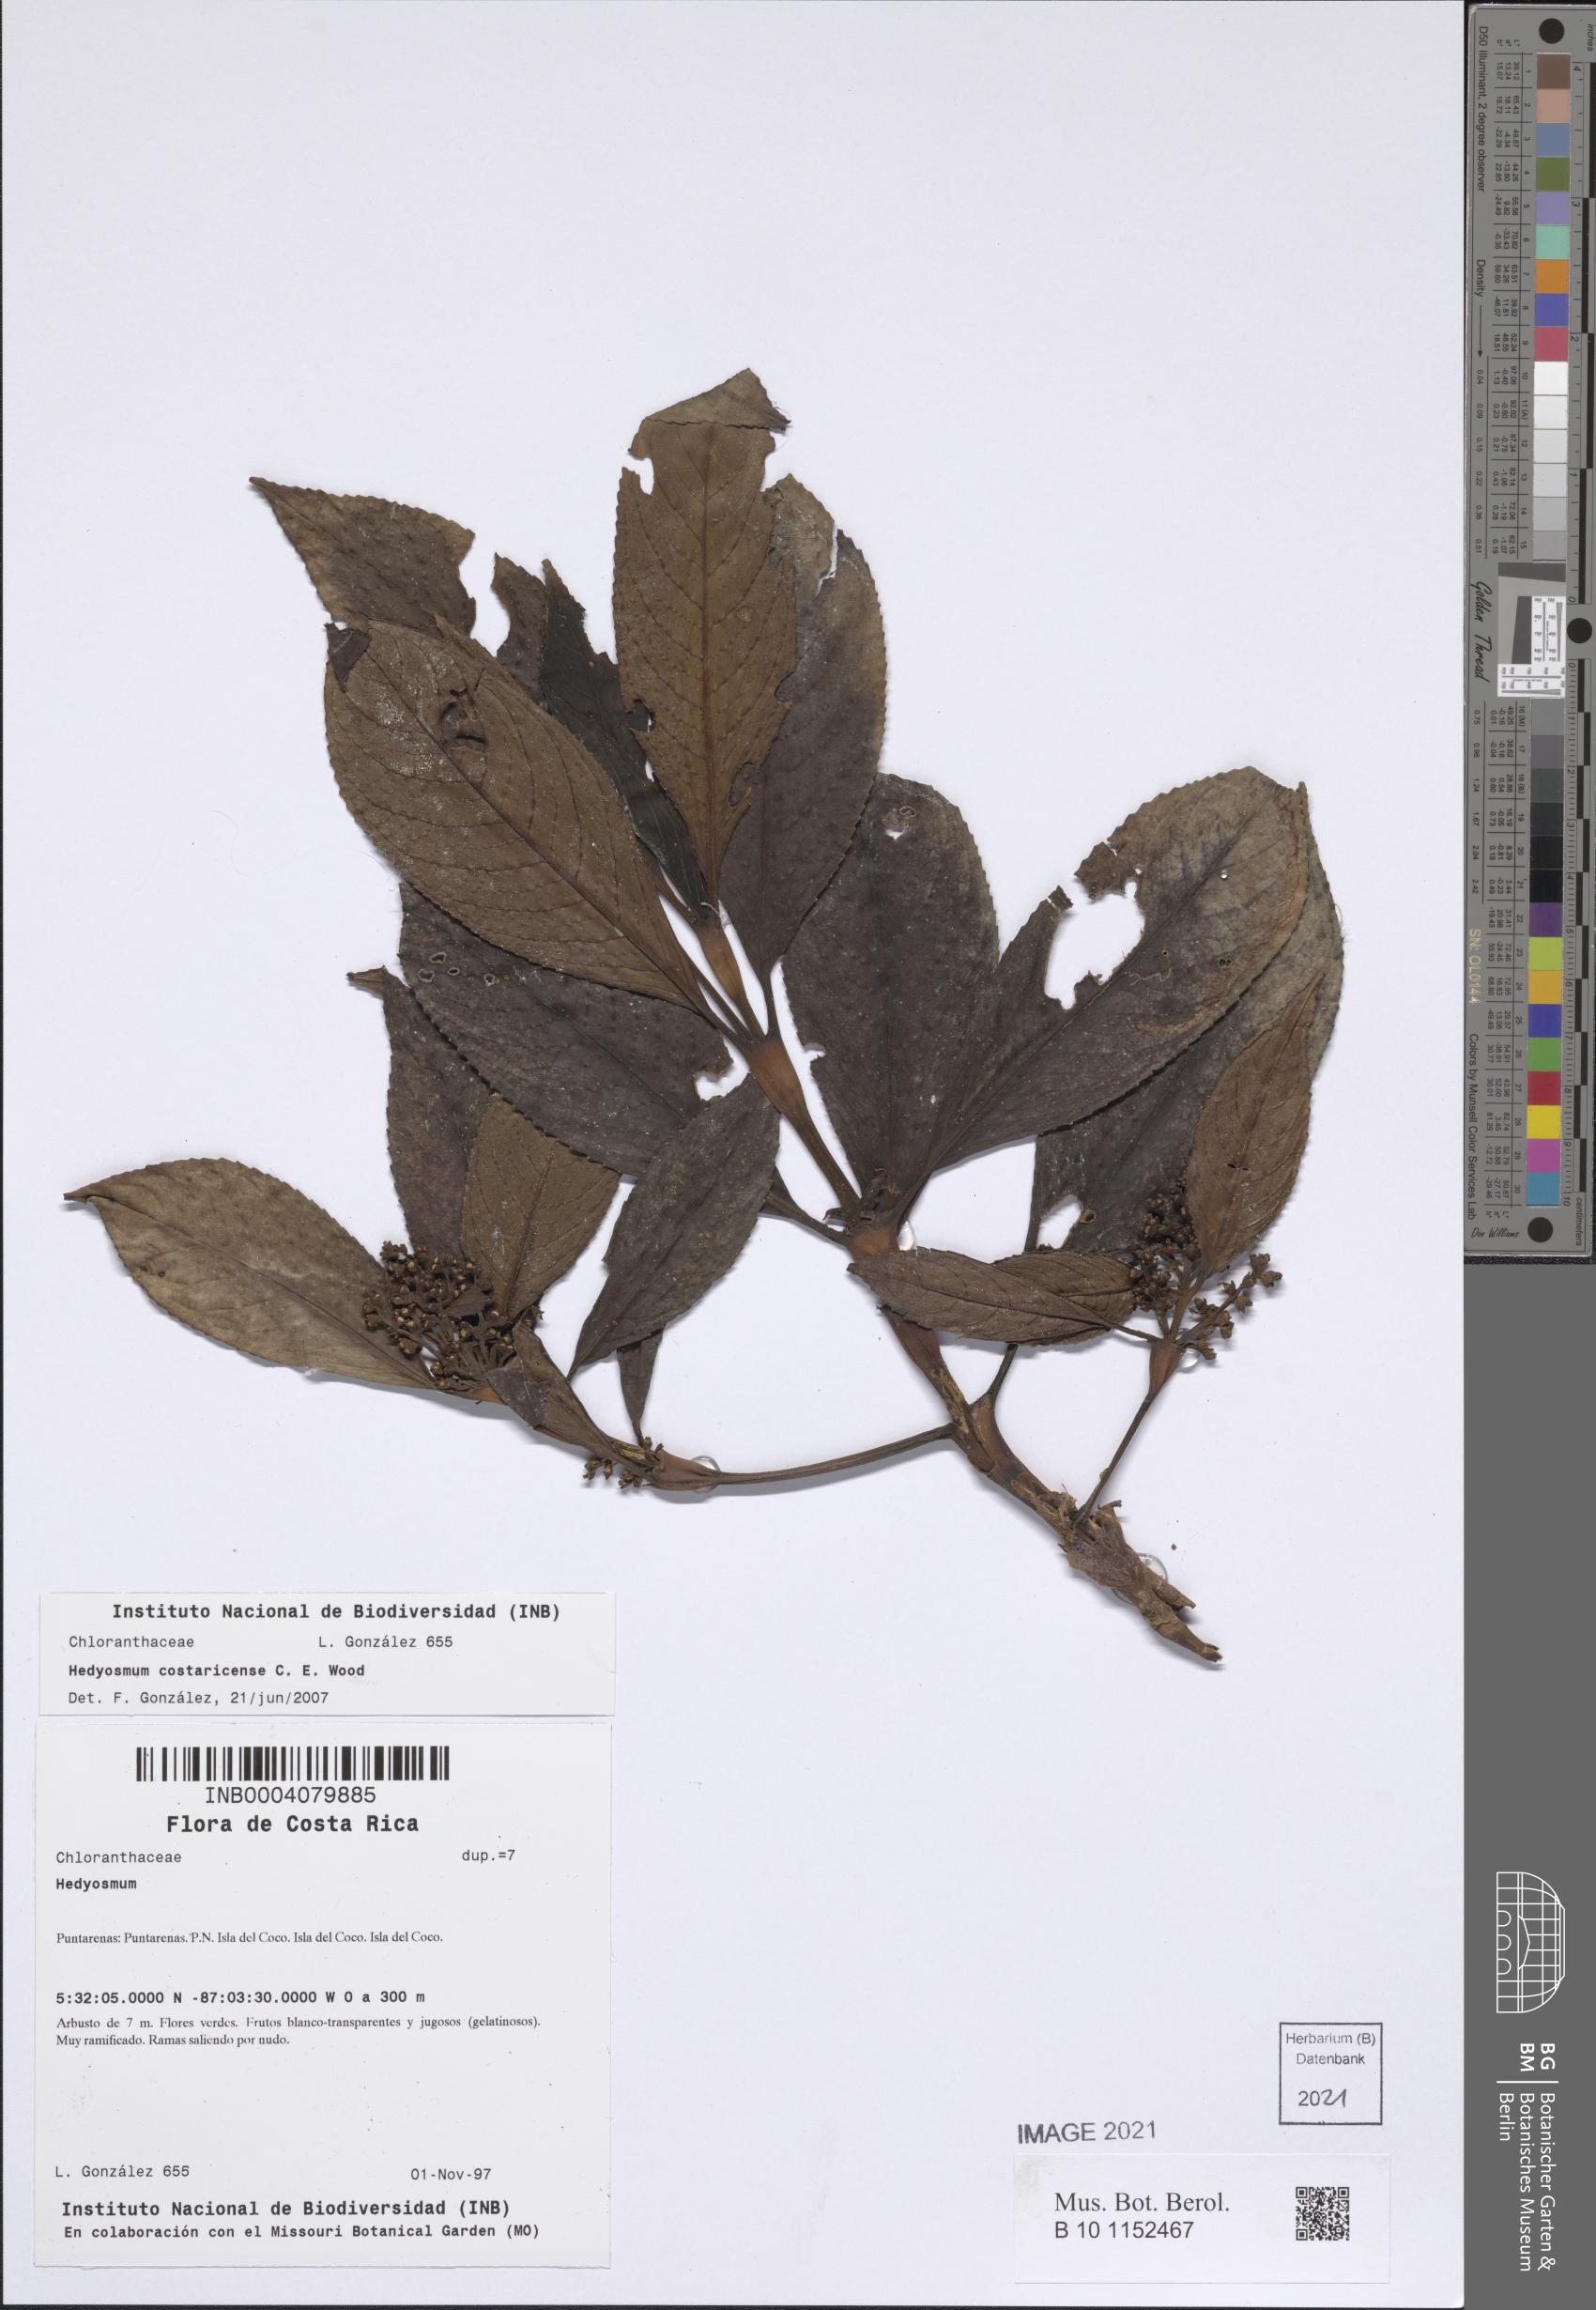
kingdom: Plantae
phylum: Tracheophyta
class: Magnoliopsida
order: Chloranthales
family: Chloranthaceae
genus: Hedyosmum
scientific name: Hedyosmum costaricense
